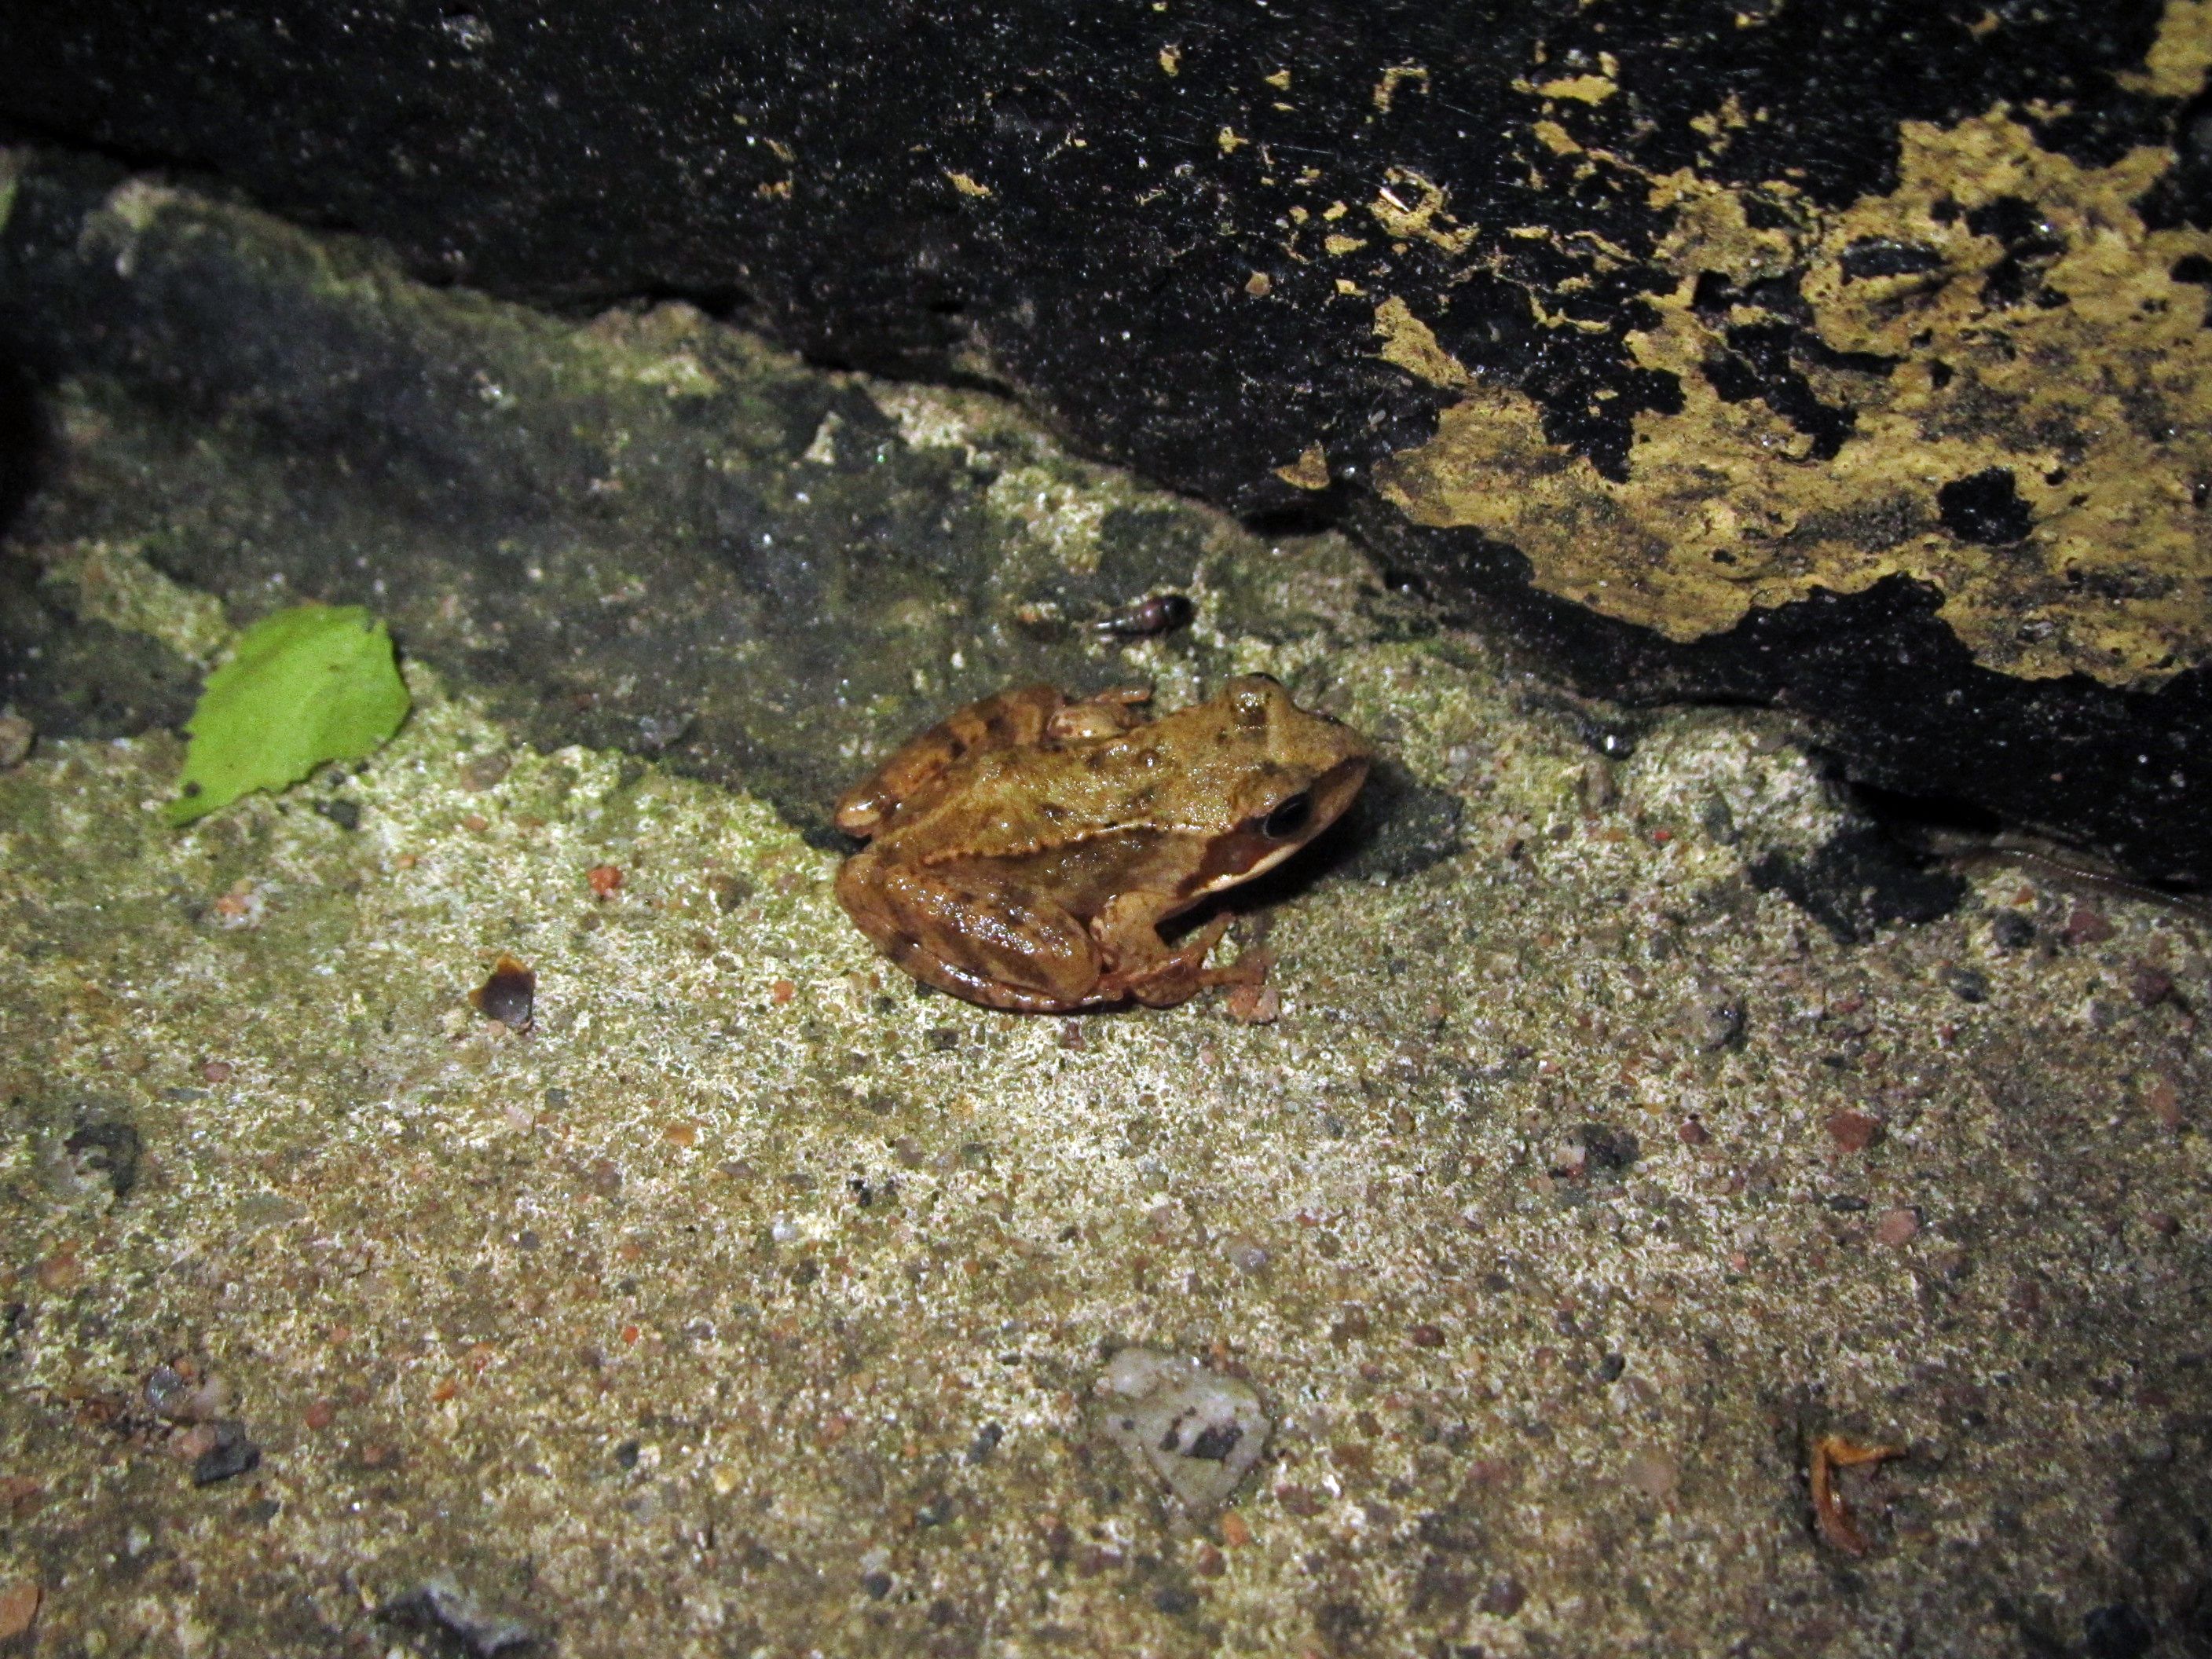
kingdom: Animalia
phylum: Chordata
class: Amphibia
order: Anura
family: Ranidae
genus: Rana
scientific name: Rana temporaria
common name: Common frog
